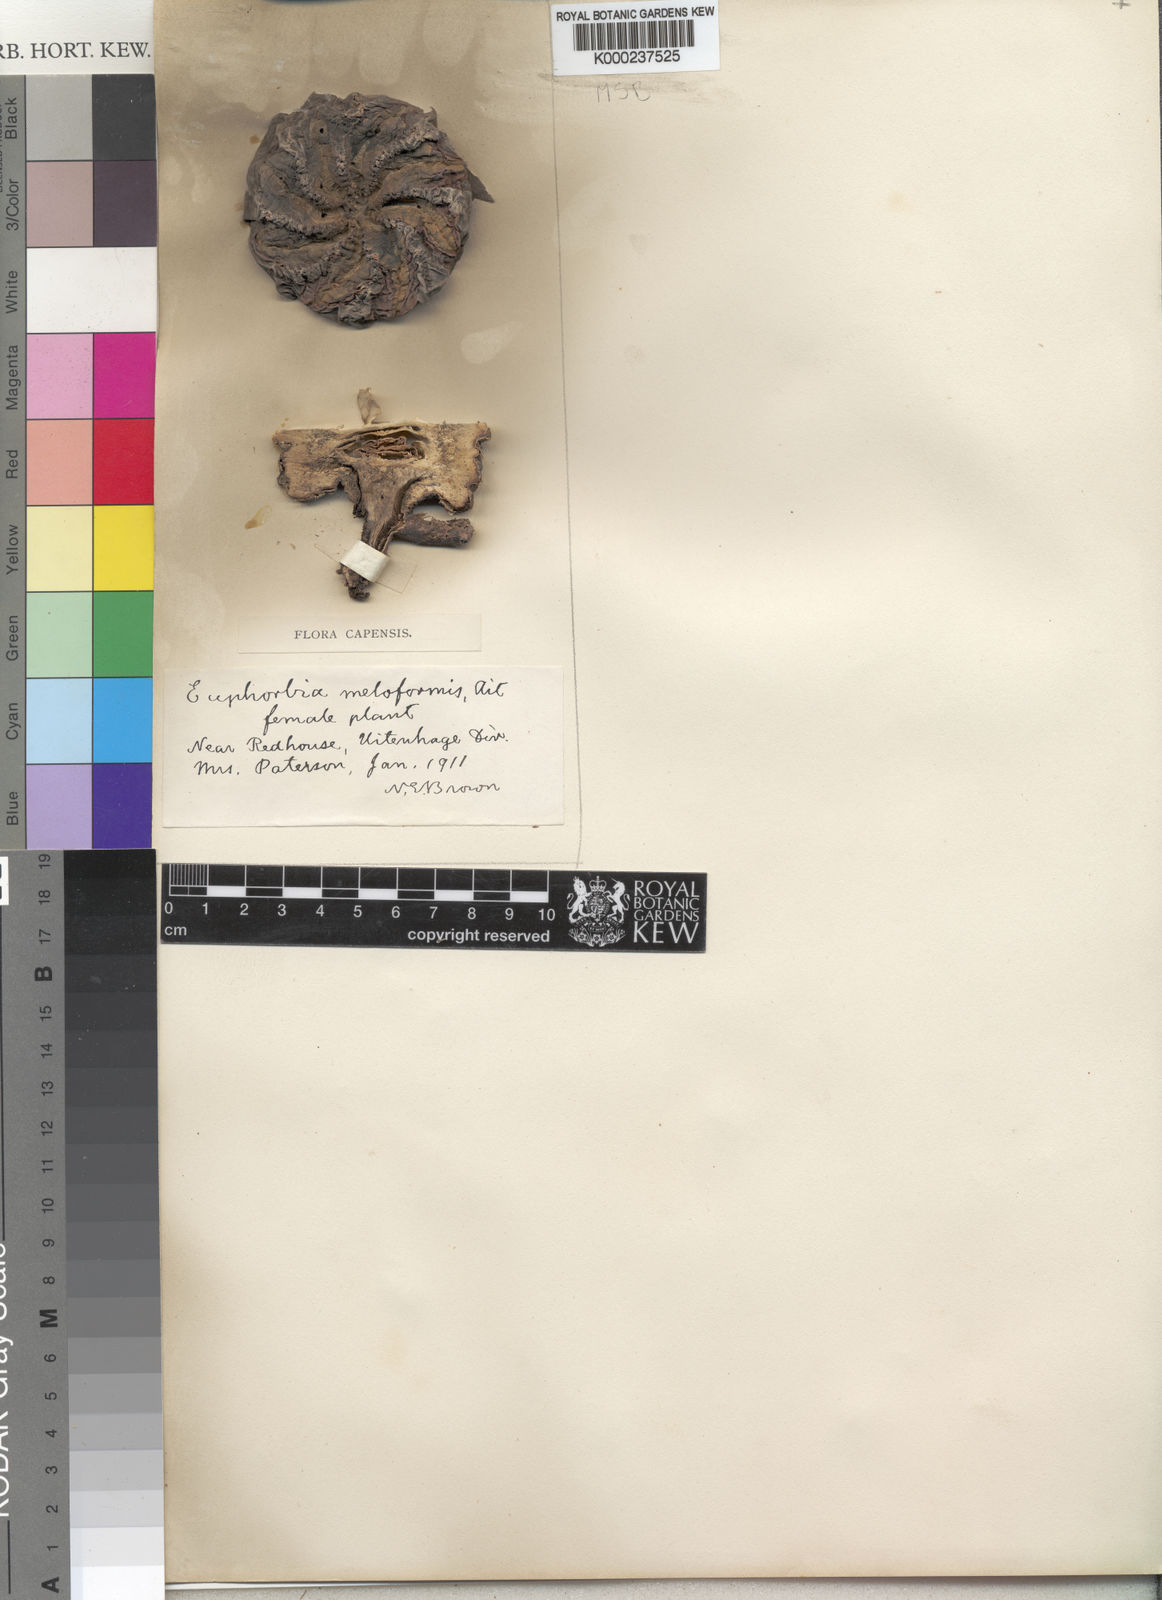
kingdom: Plantae
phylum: Tracheophyta
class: Magnoliopsida
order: Malpighiales
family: Euphorbiaceae
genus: Euphorbia
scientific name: Euphorbia meloformis
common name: Melon spurge
